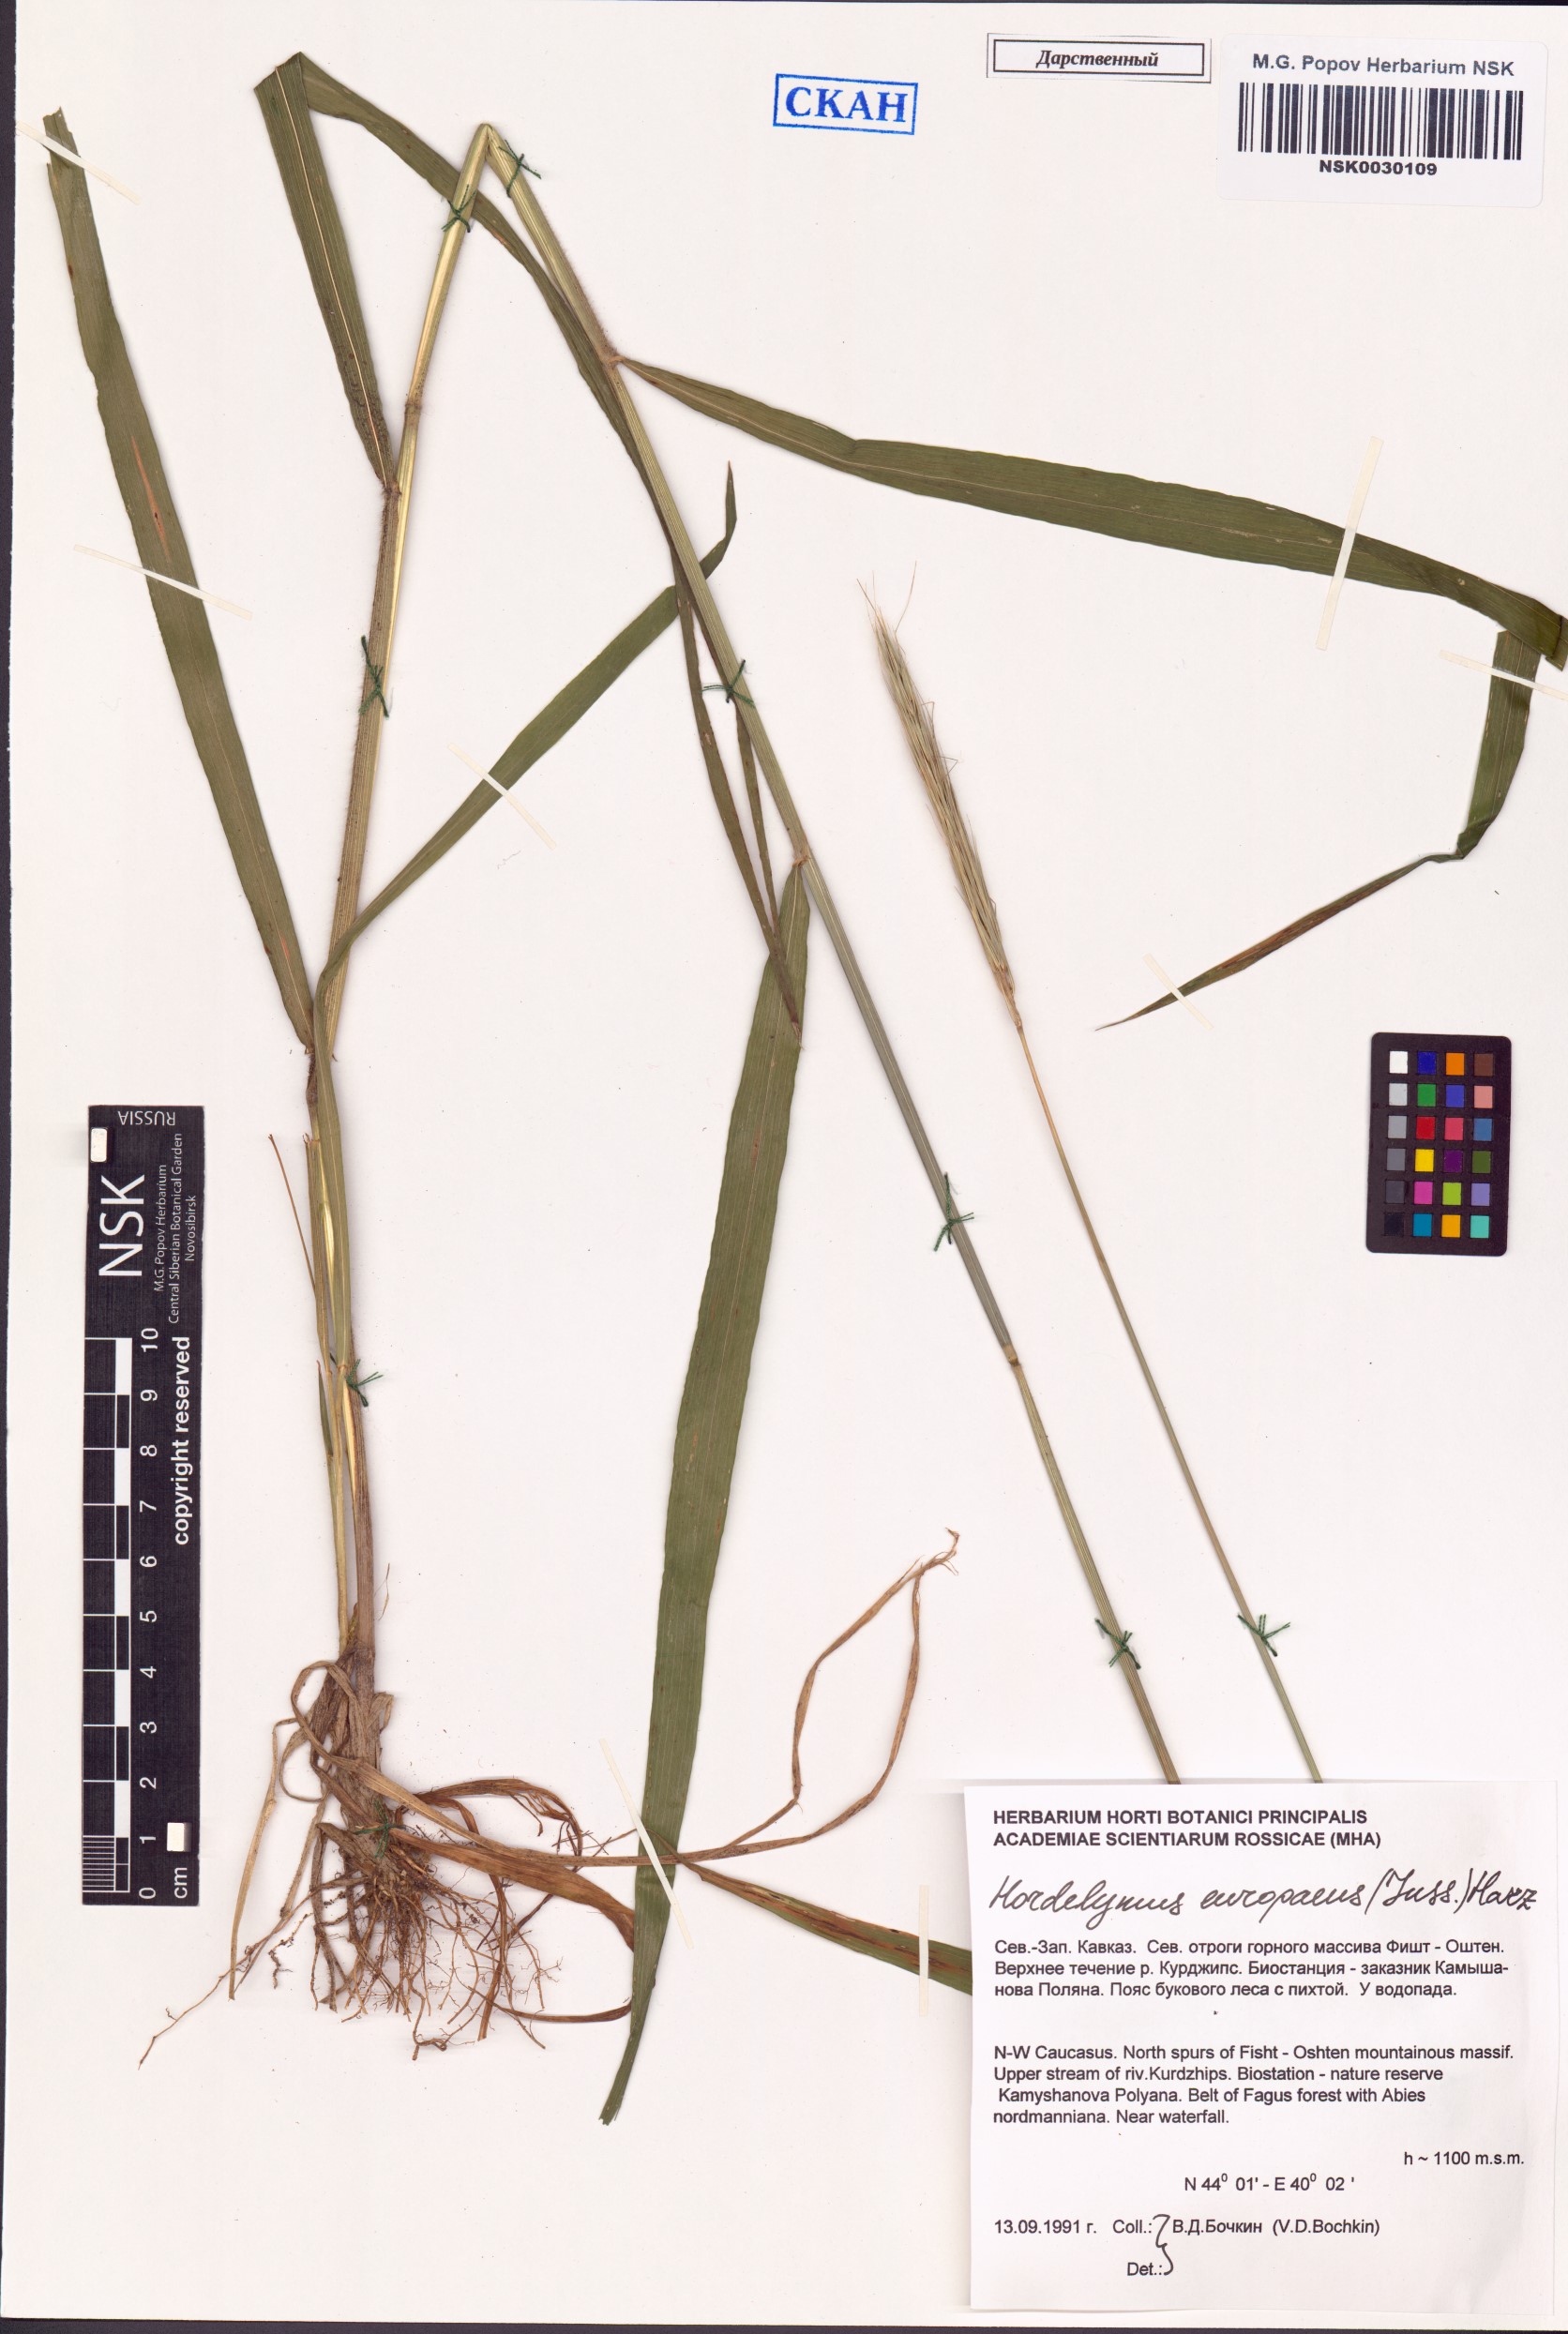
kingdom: Plantae
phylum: Tracheophyta
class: Liliopsida
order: Poales
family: Poaceae
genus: Hordelymus
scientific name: Hordelymus europaeus
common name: Wood-barley
